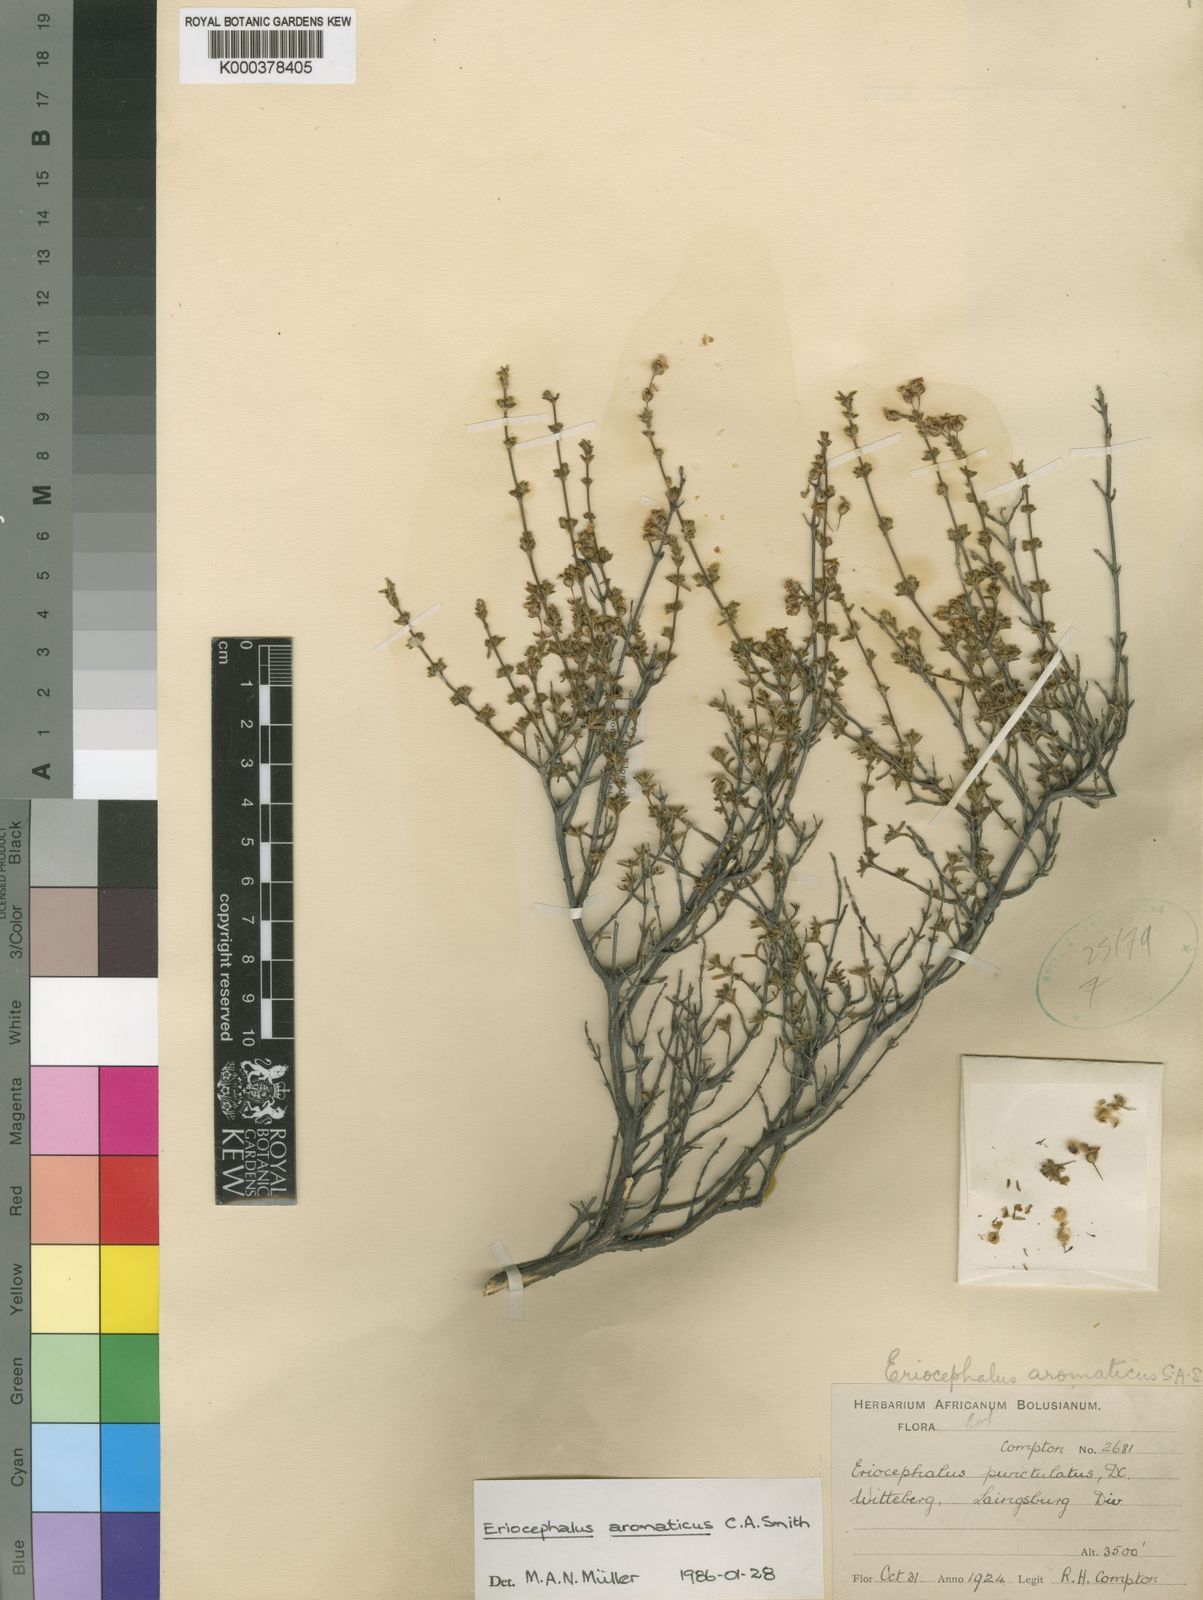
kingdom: Plantae
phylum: Tracheophyta
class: Magnoliopsida
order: Asterales
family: Asteraceae
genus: Eriocephalus
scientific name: Eriocephalus aromaticus
